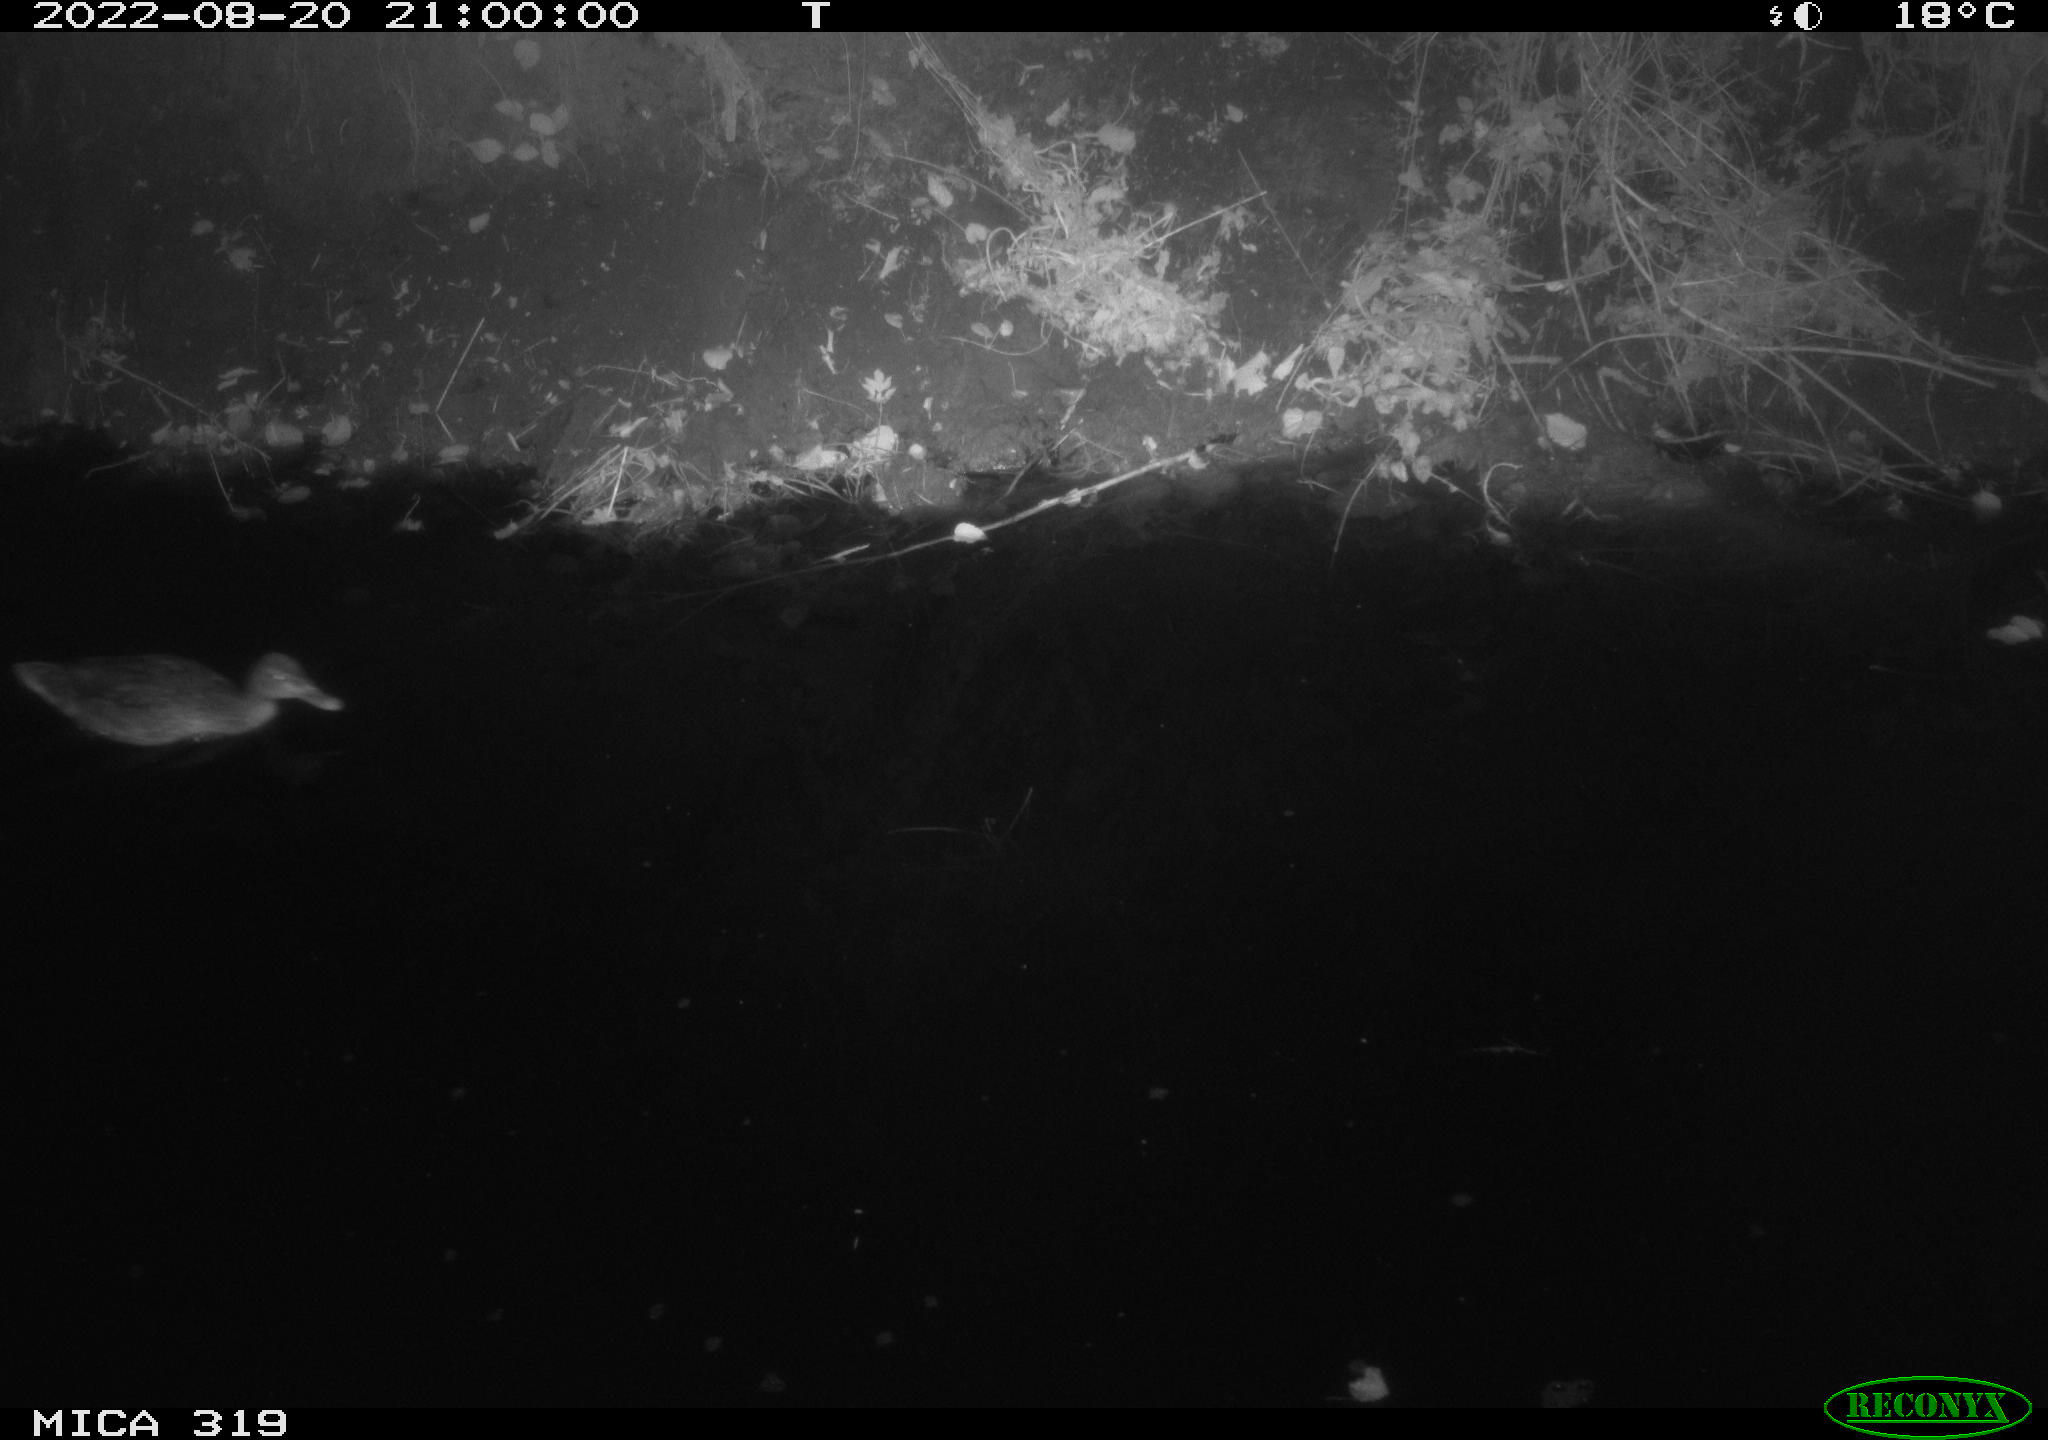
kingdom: Animalia
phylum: Chordata
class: Aves
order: Anseriformes
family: Anatidae
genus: Anas
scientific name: Anas
